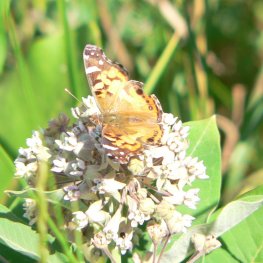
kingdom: Animalia
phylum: Arthropoda
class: Insecta
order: Lepidoptera
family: Nymphalidae
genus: Vanessa
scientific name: Vanessa cardui
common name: Painted Lady
